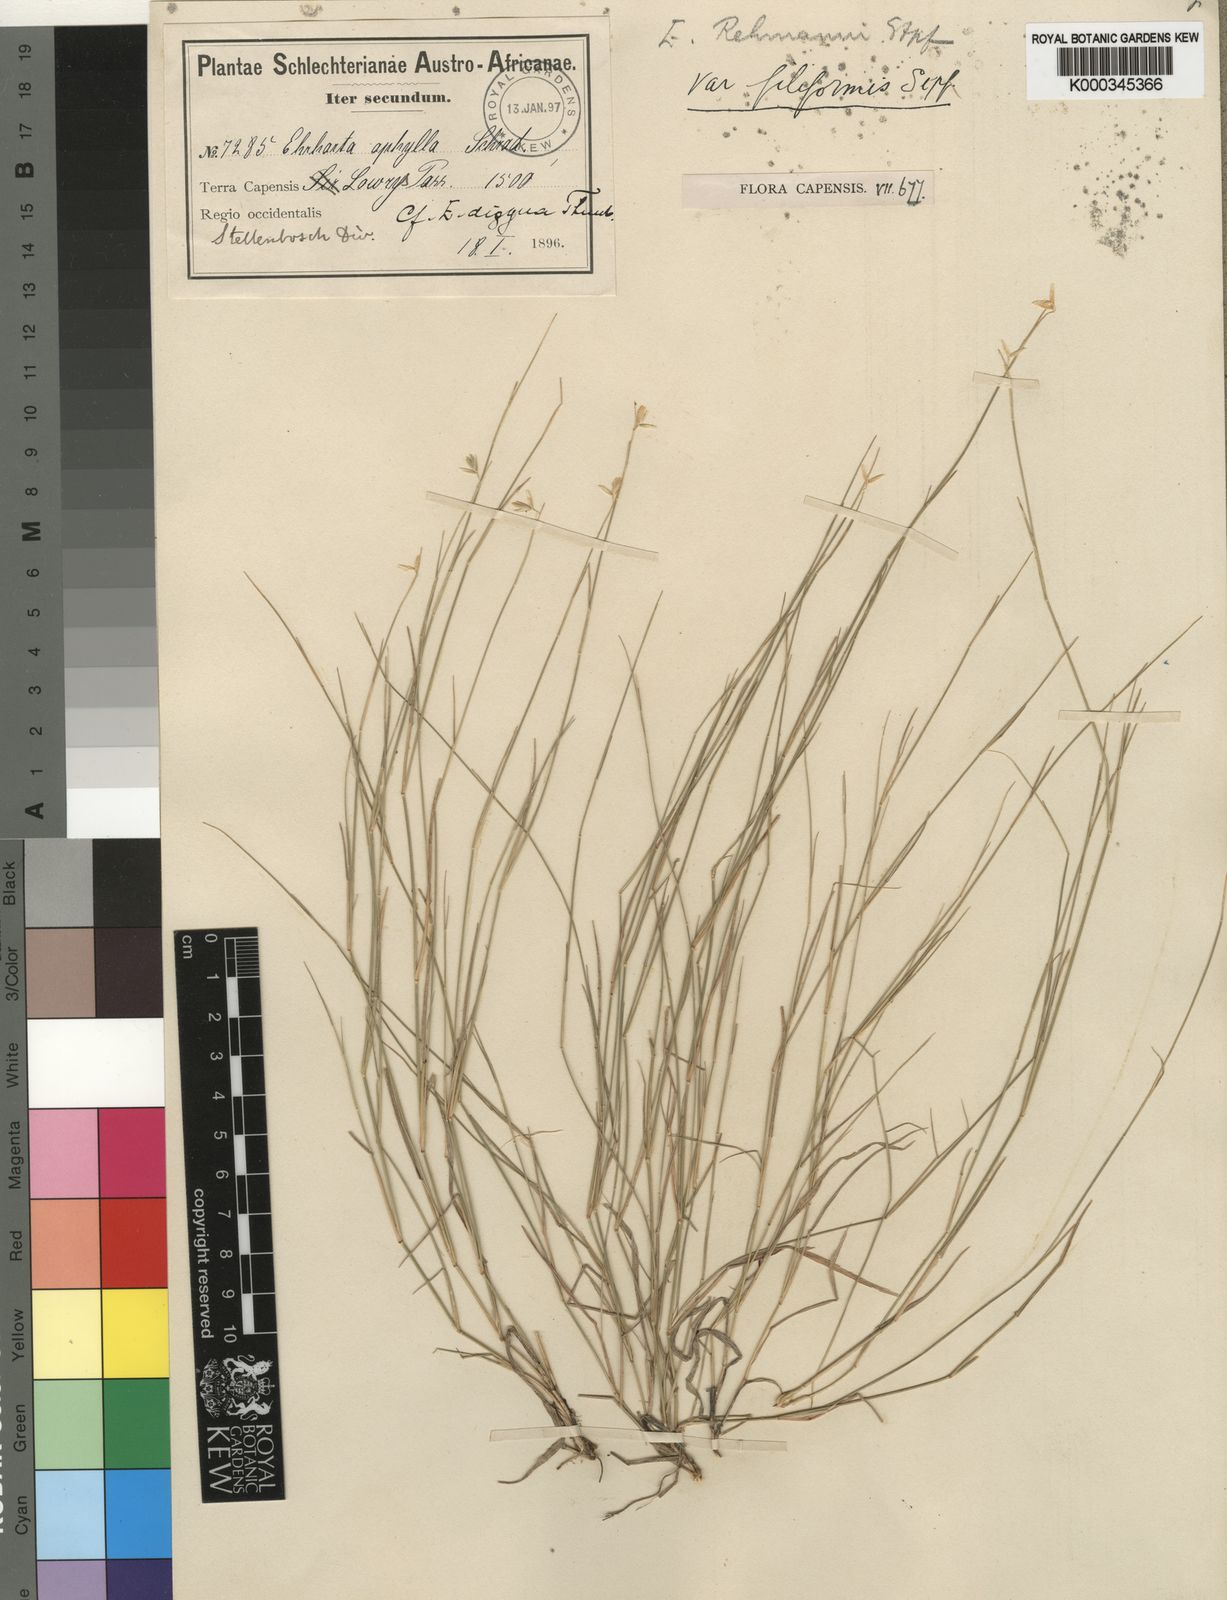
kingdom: Plantae
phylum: Tracheophyta
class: Liliopsida
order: Poales
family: Poaceae
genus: Ehrharta
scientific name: Ehrharta rehmannii
